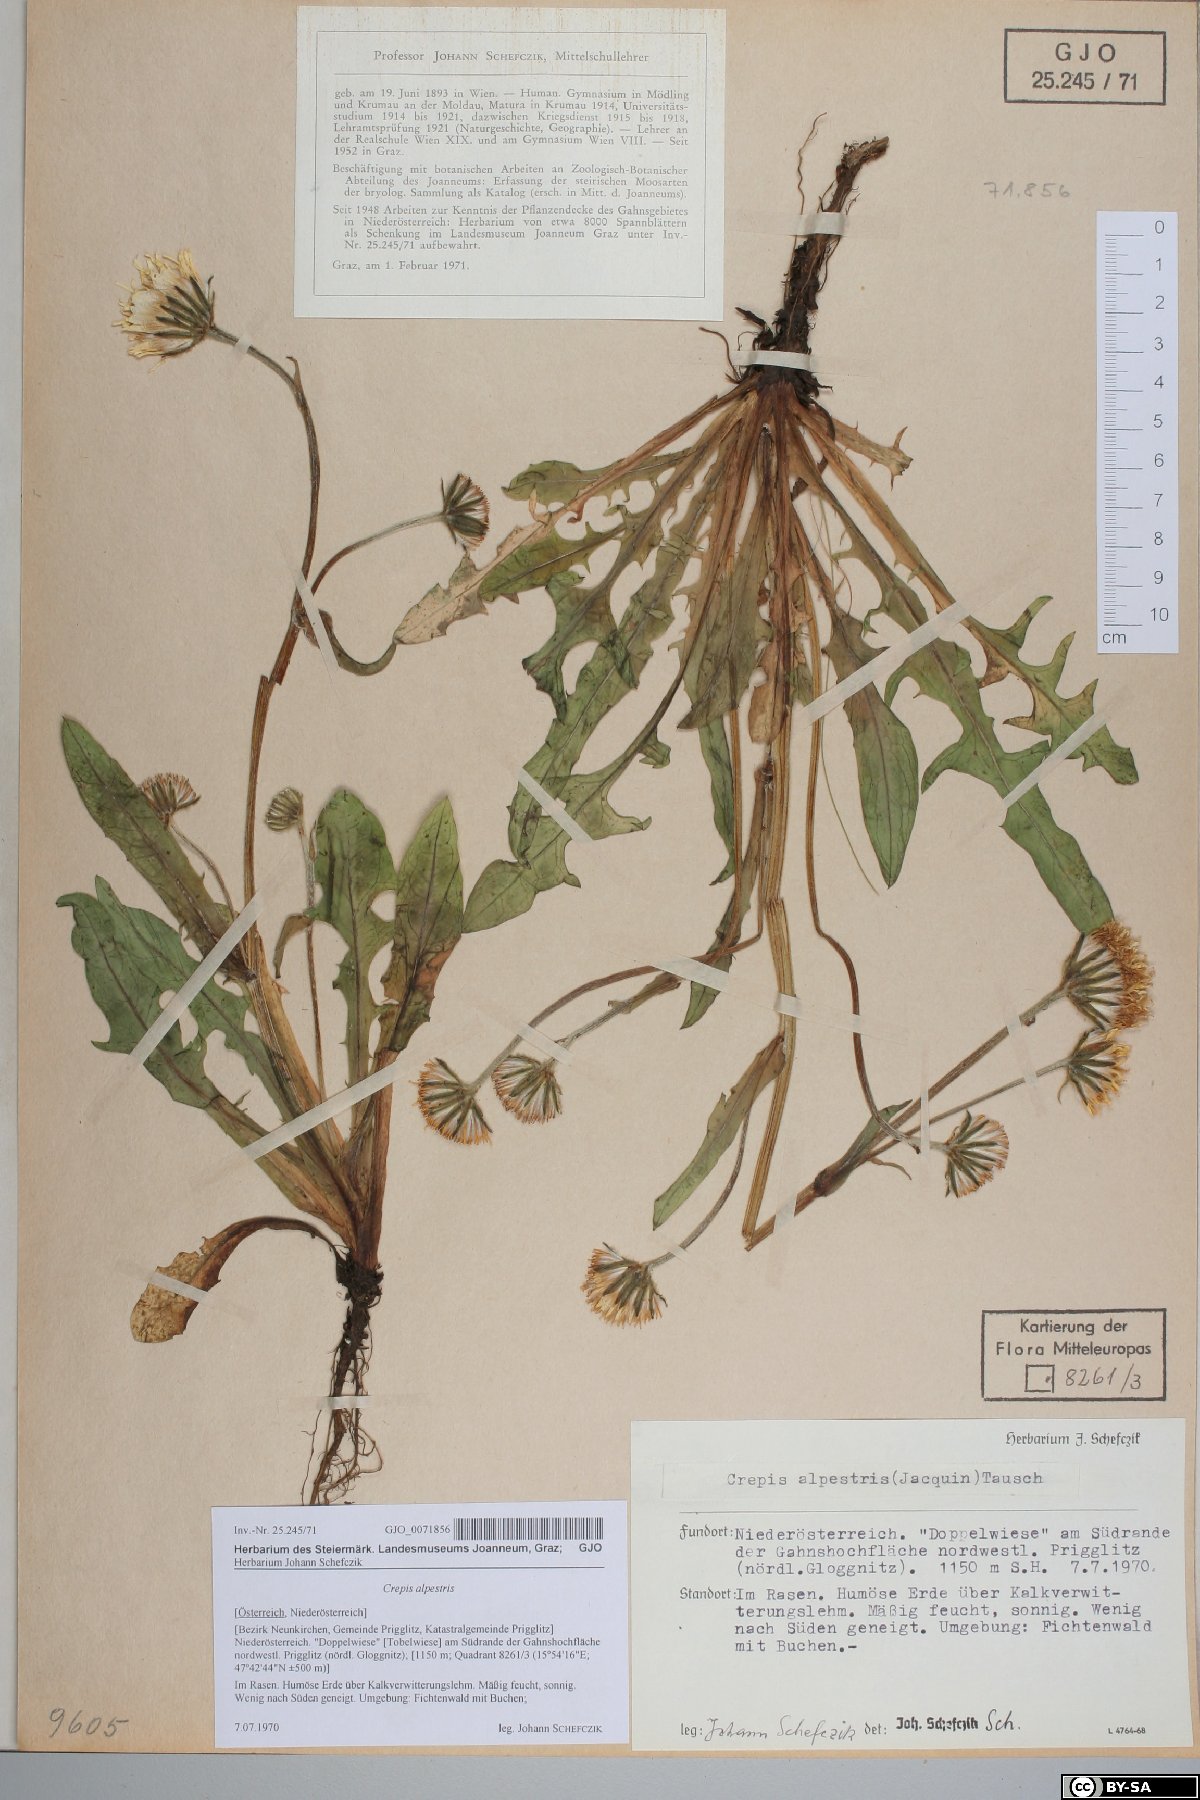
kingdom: Plantae
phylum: Tracheophyta
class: Magnoliopsida
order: Asterales
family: Asteraceae
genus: Crepis
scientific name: Crepis alpestris
